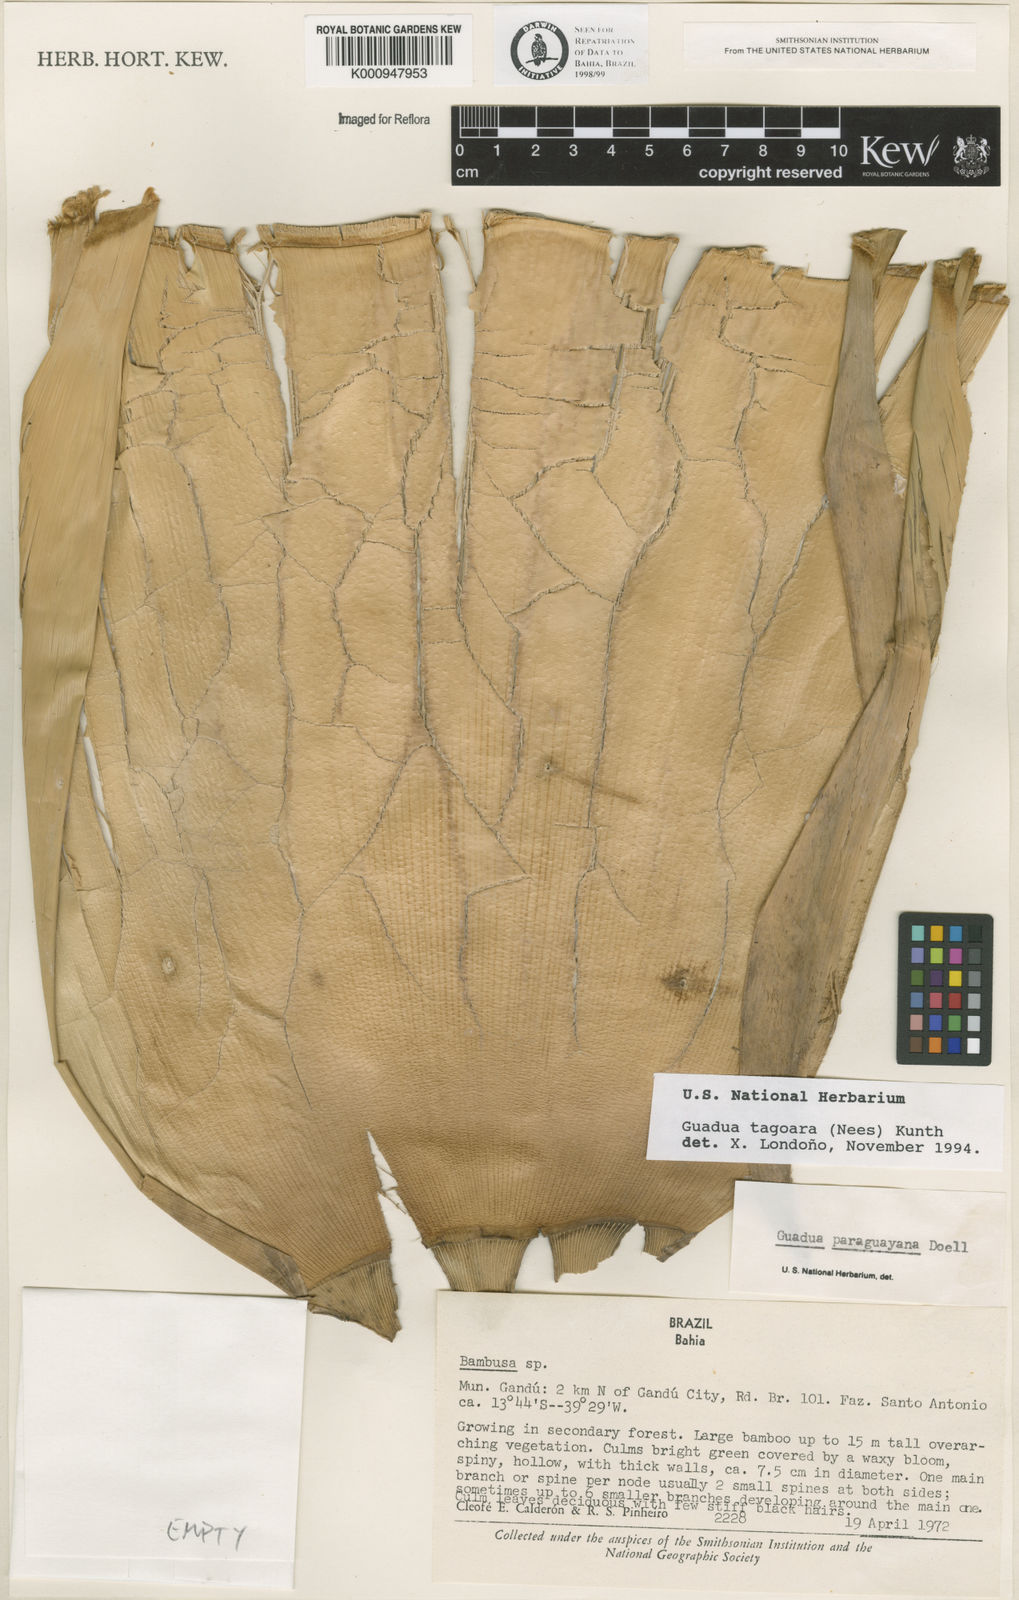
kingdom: Plantae
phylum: Tracheophyta
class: Liliopsida
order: Poales
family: Poaceae
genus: Guadua
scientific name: Guadua tagoara
